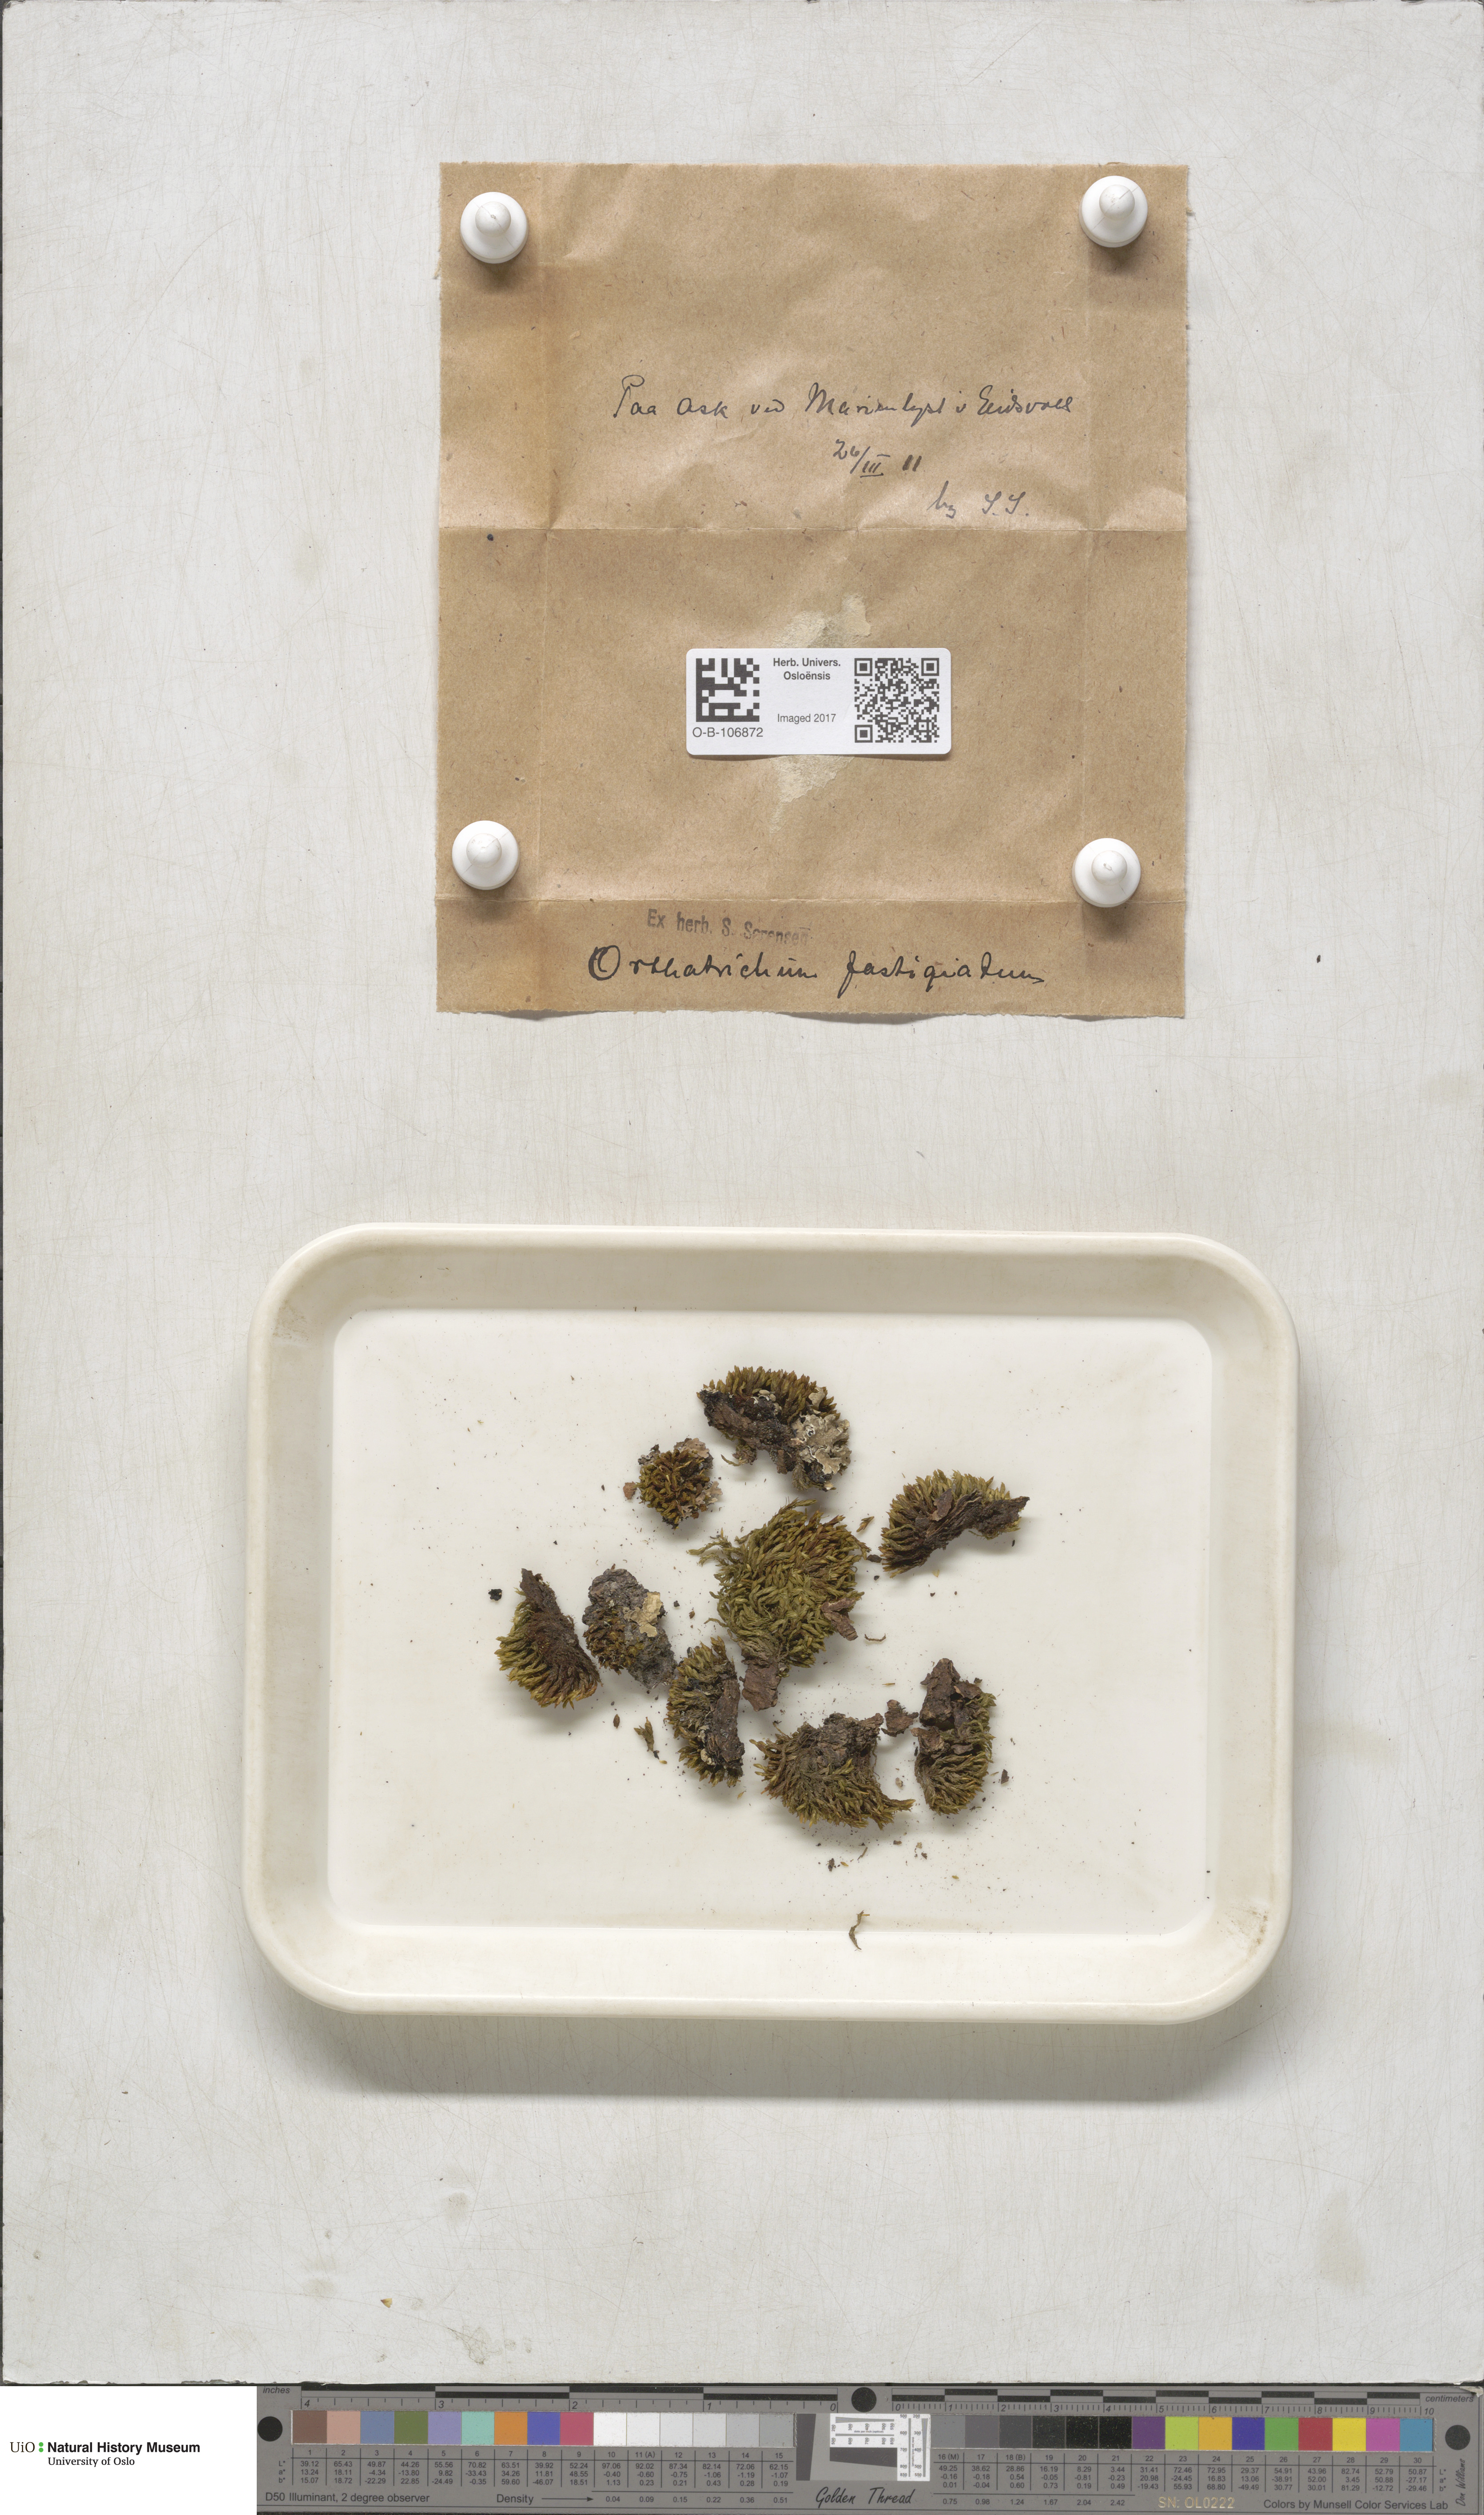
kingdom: Plantae
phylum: Bryophyta
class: Bryopsida
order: Orthotrichales
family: Orthotrichaceae
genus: Lewinskya
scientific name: Lewinskya affinis
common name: Wood bristle-moss
